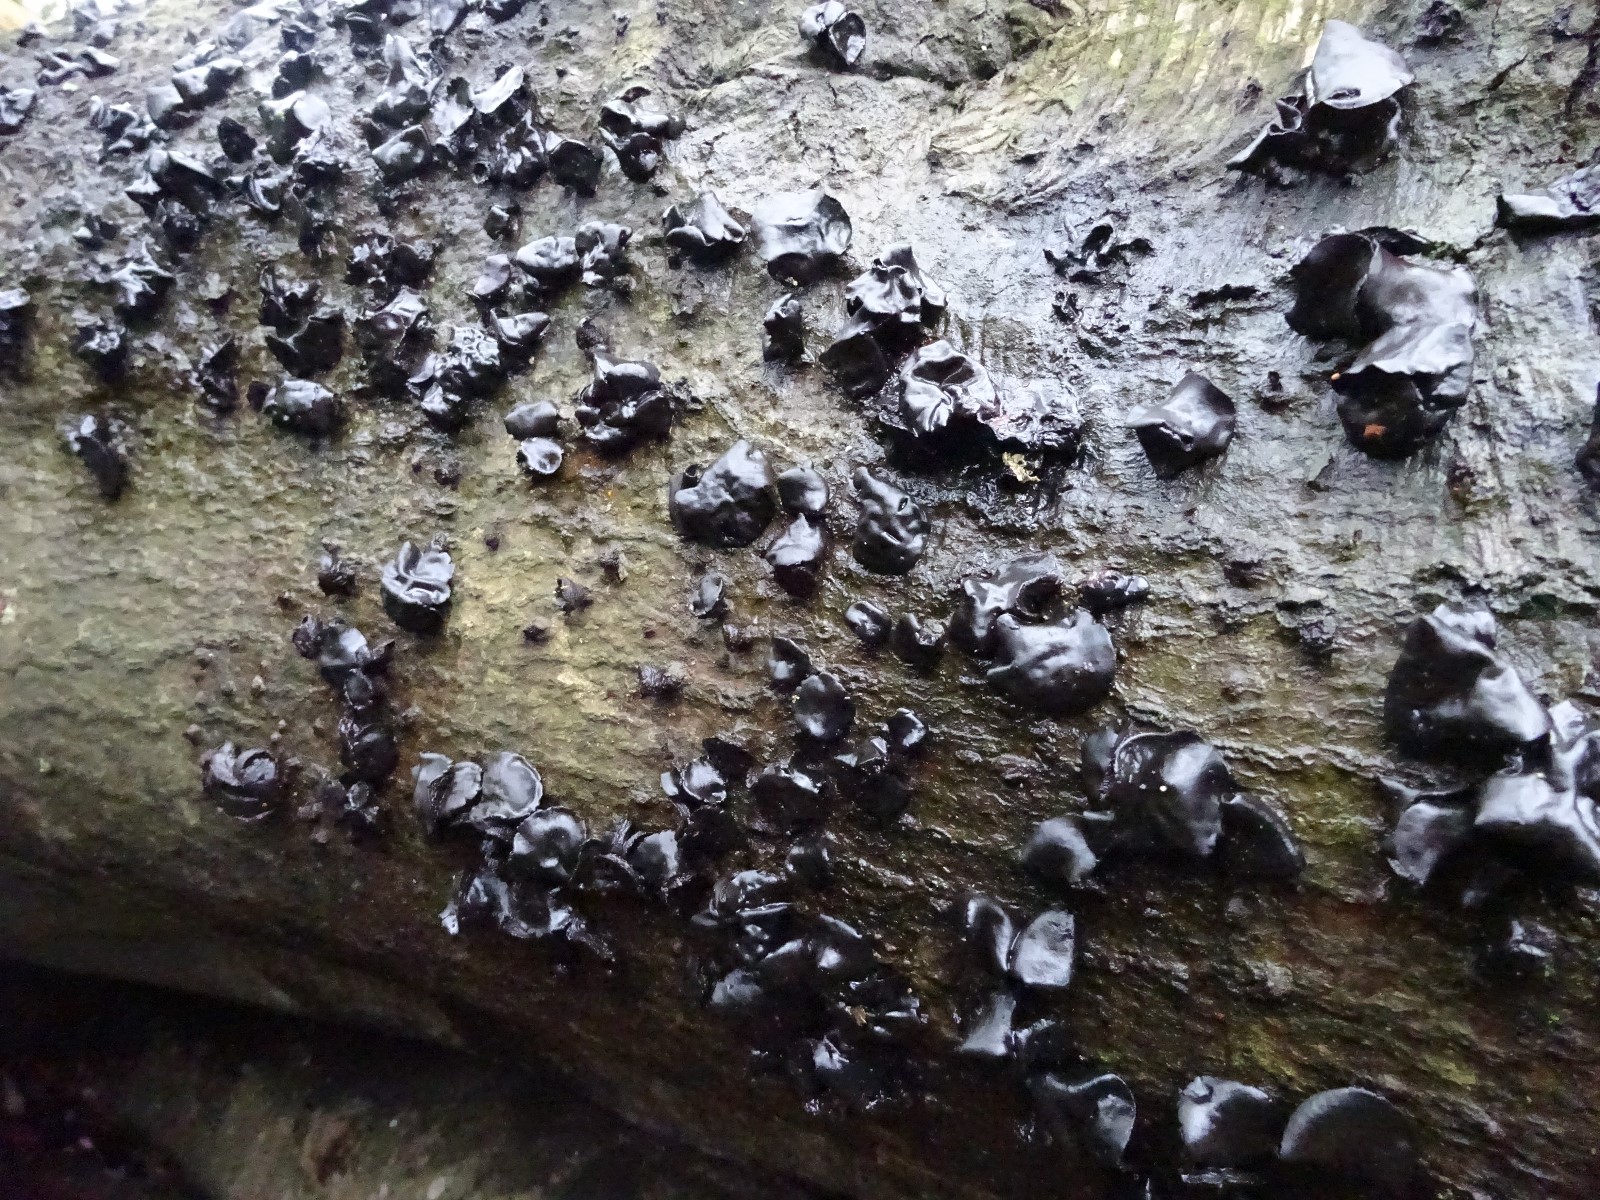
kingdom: Fungi
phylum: Ascomycota
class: Leotiomycetes
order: Phacidiales
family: Phacidiaceae
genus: Bulgaria
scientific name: Bulgaria inquinans
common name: afsmittende topsvamp
